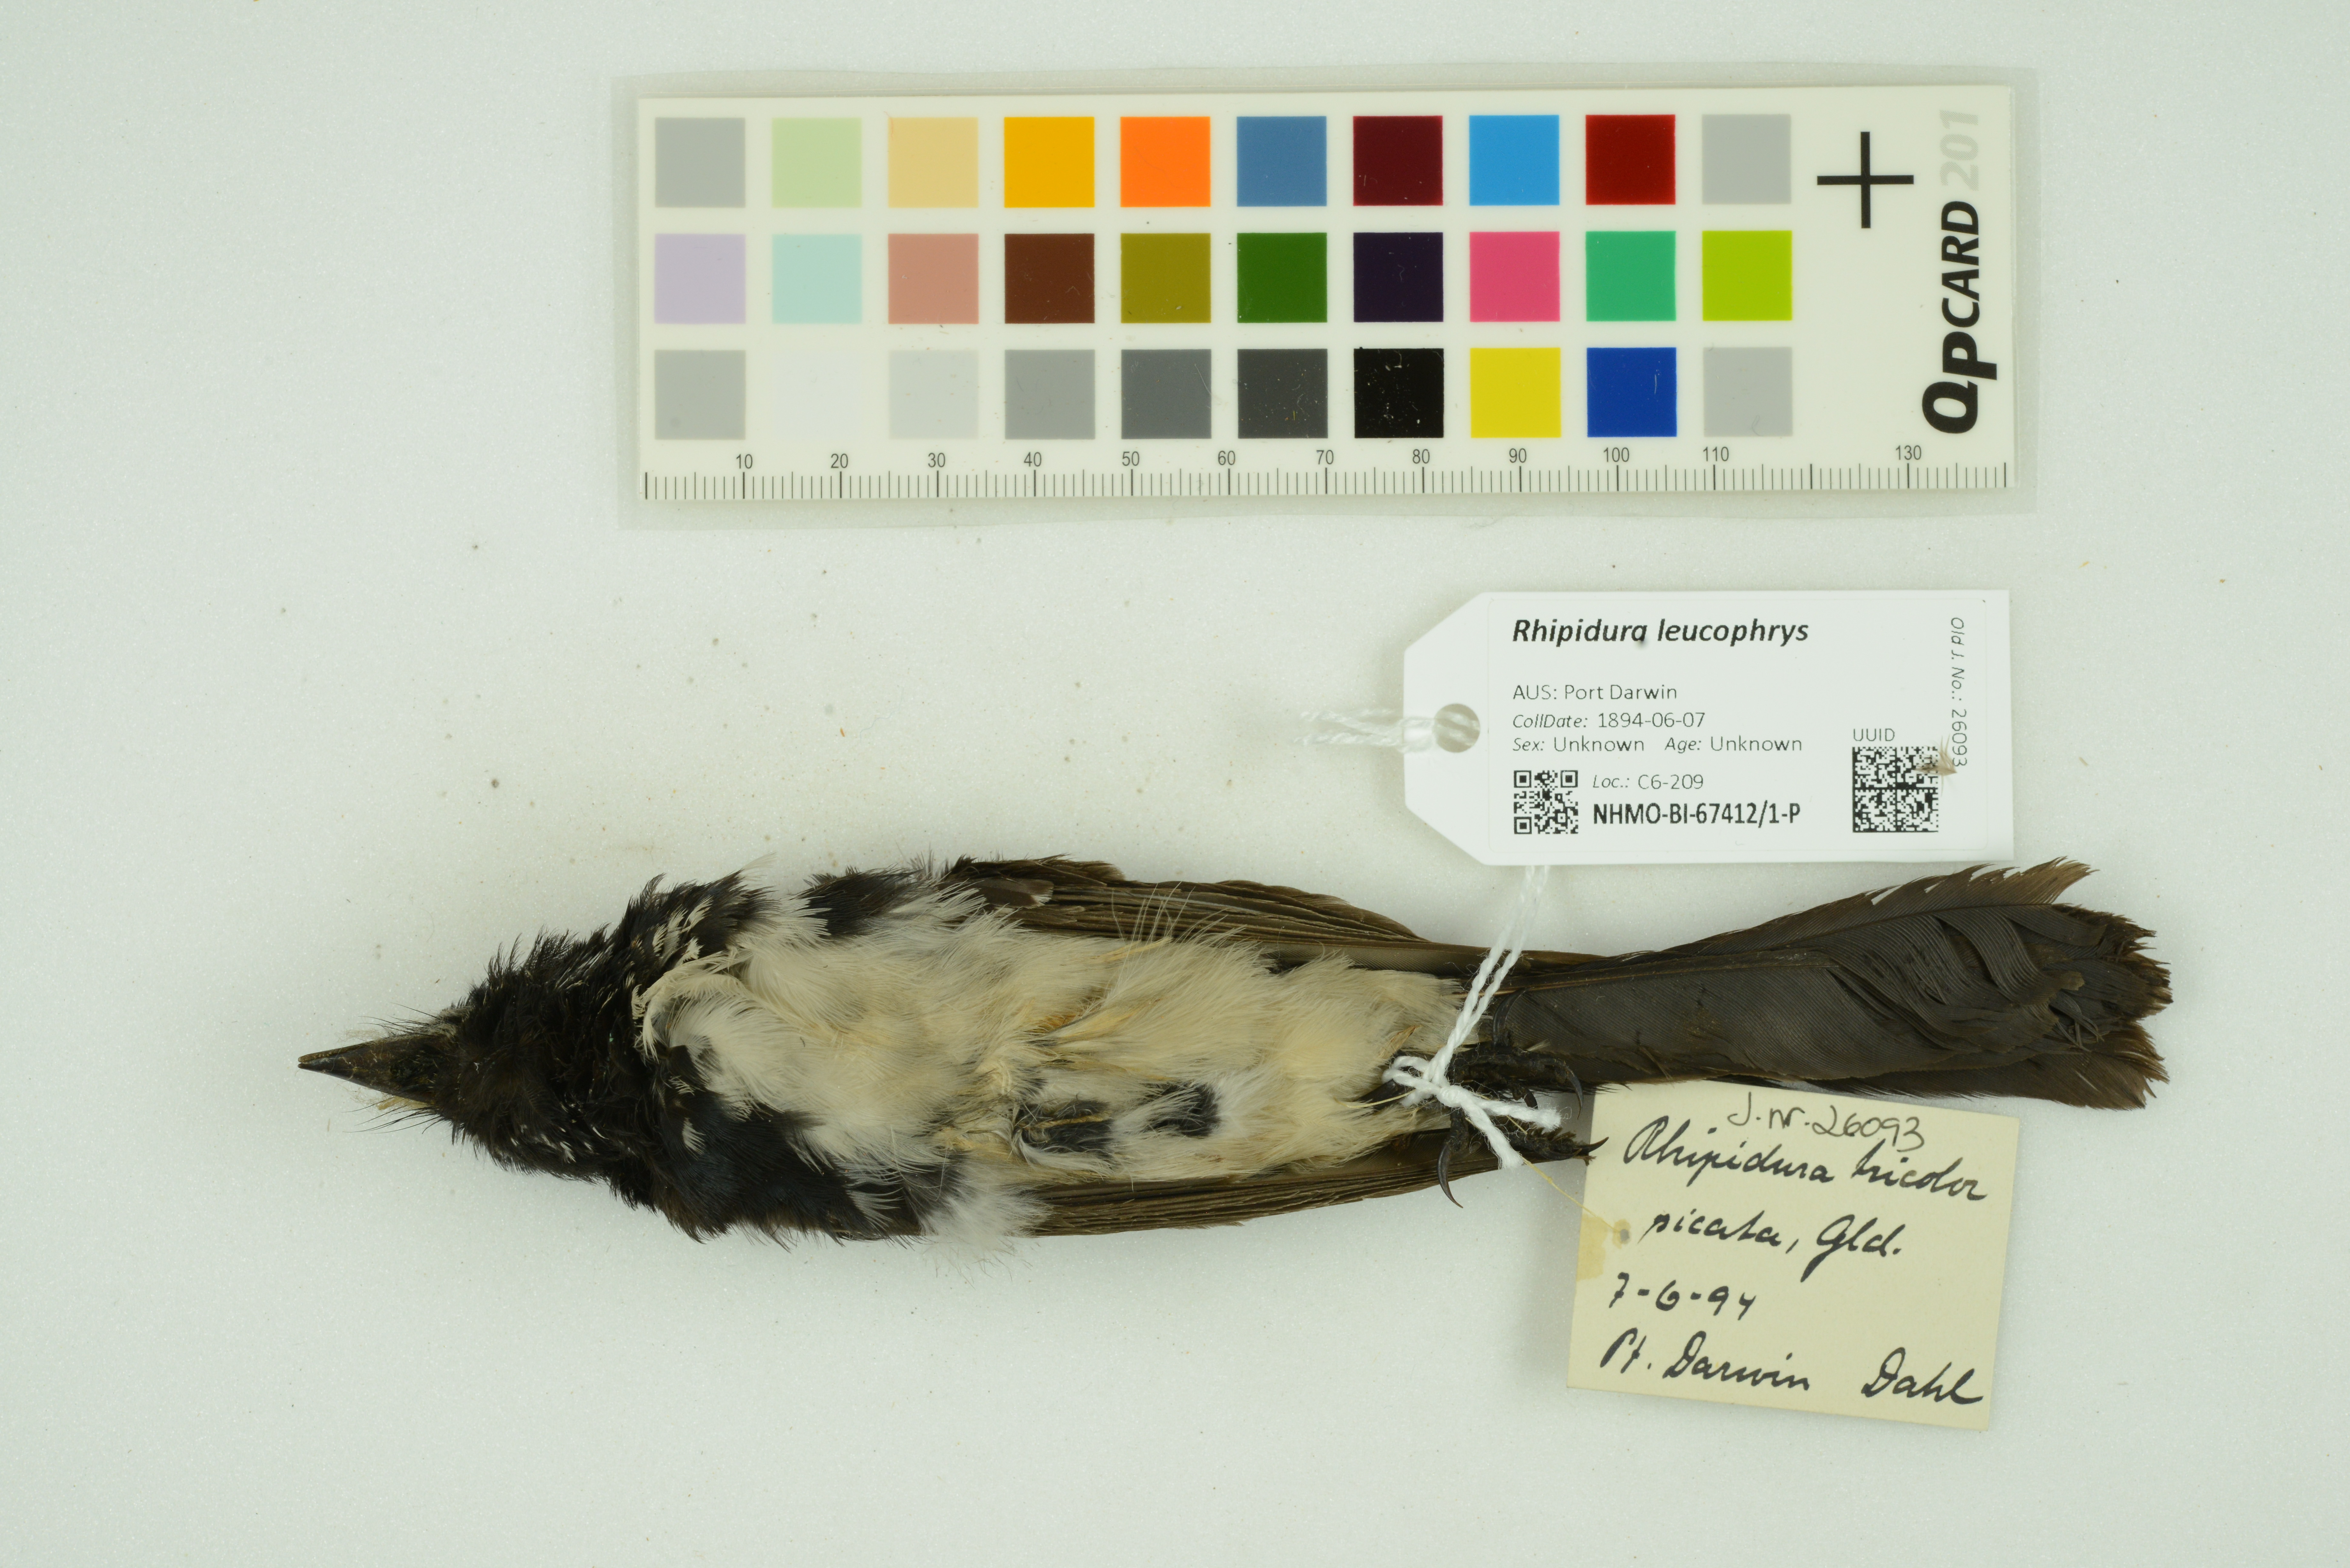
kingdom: Animalia
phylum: Chordata
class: Aves
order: Passeriformes
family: Rhipiduridae
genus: Rhipidura
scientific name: Rhipidura leucophrys
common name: Willie wagtail
